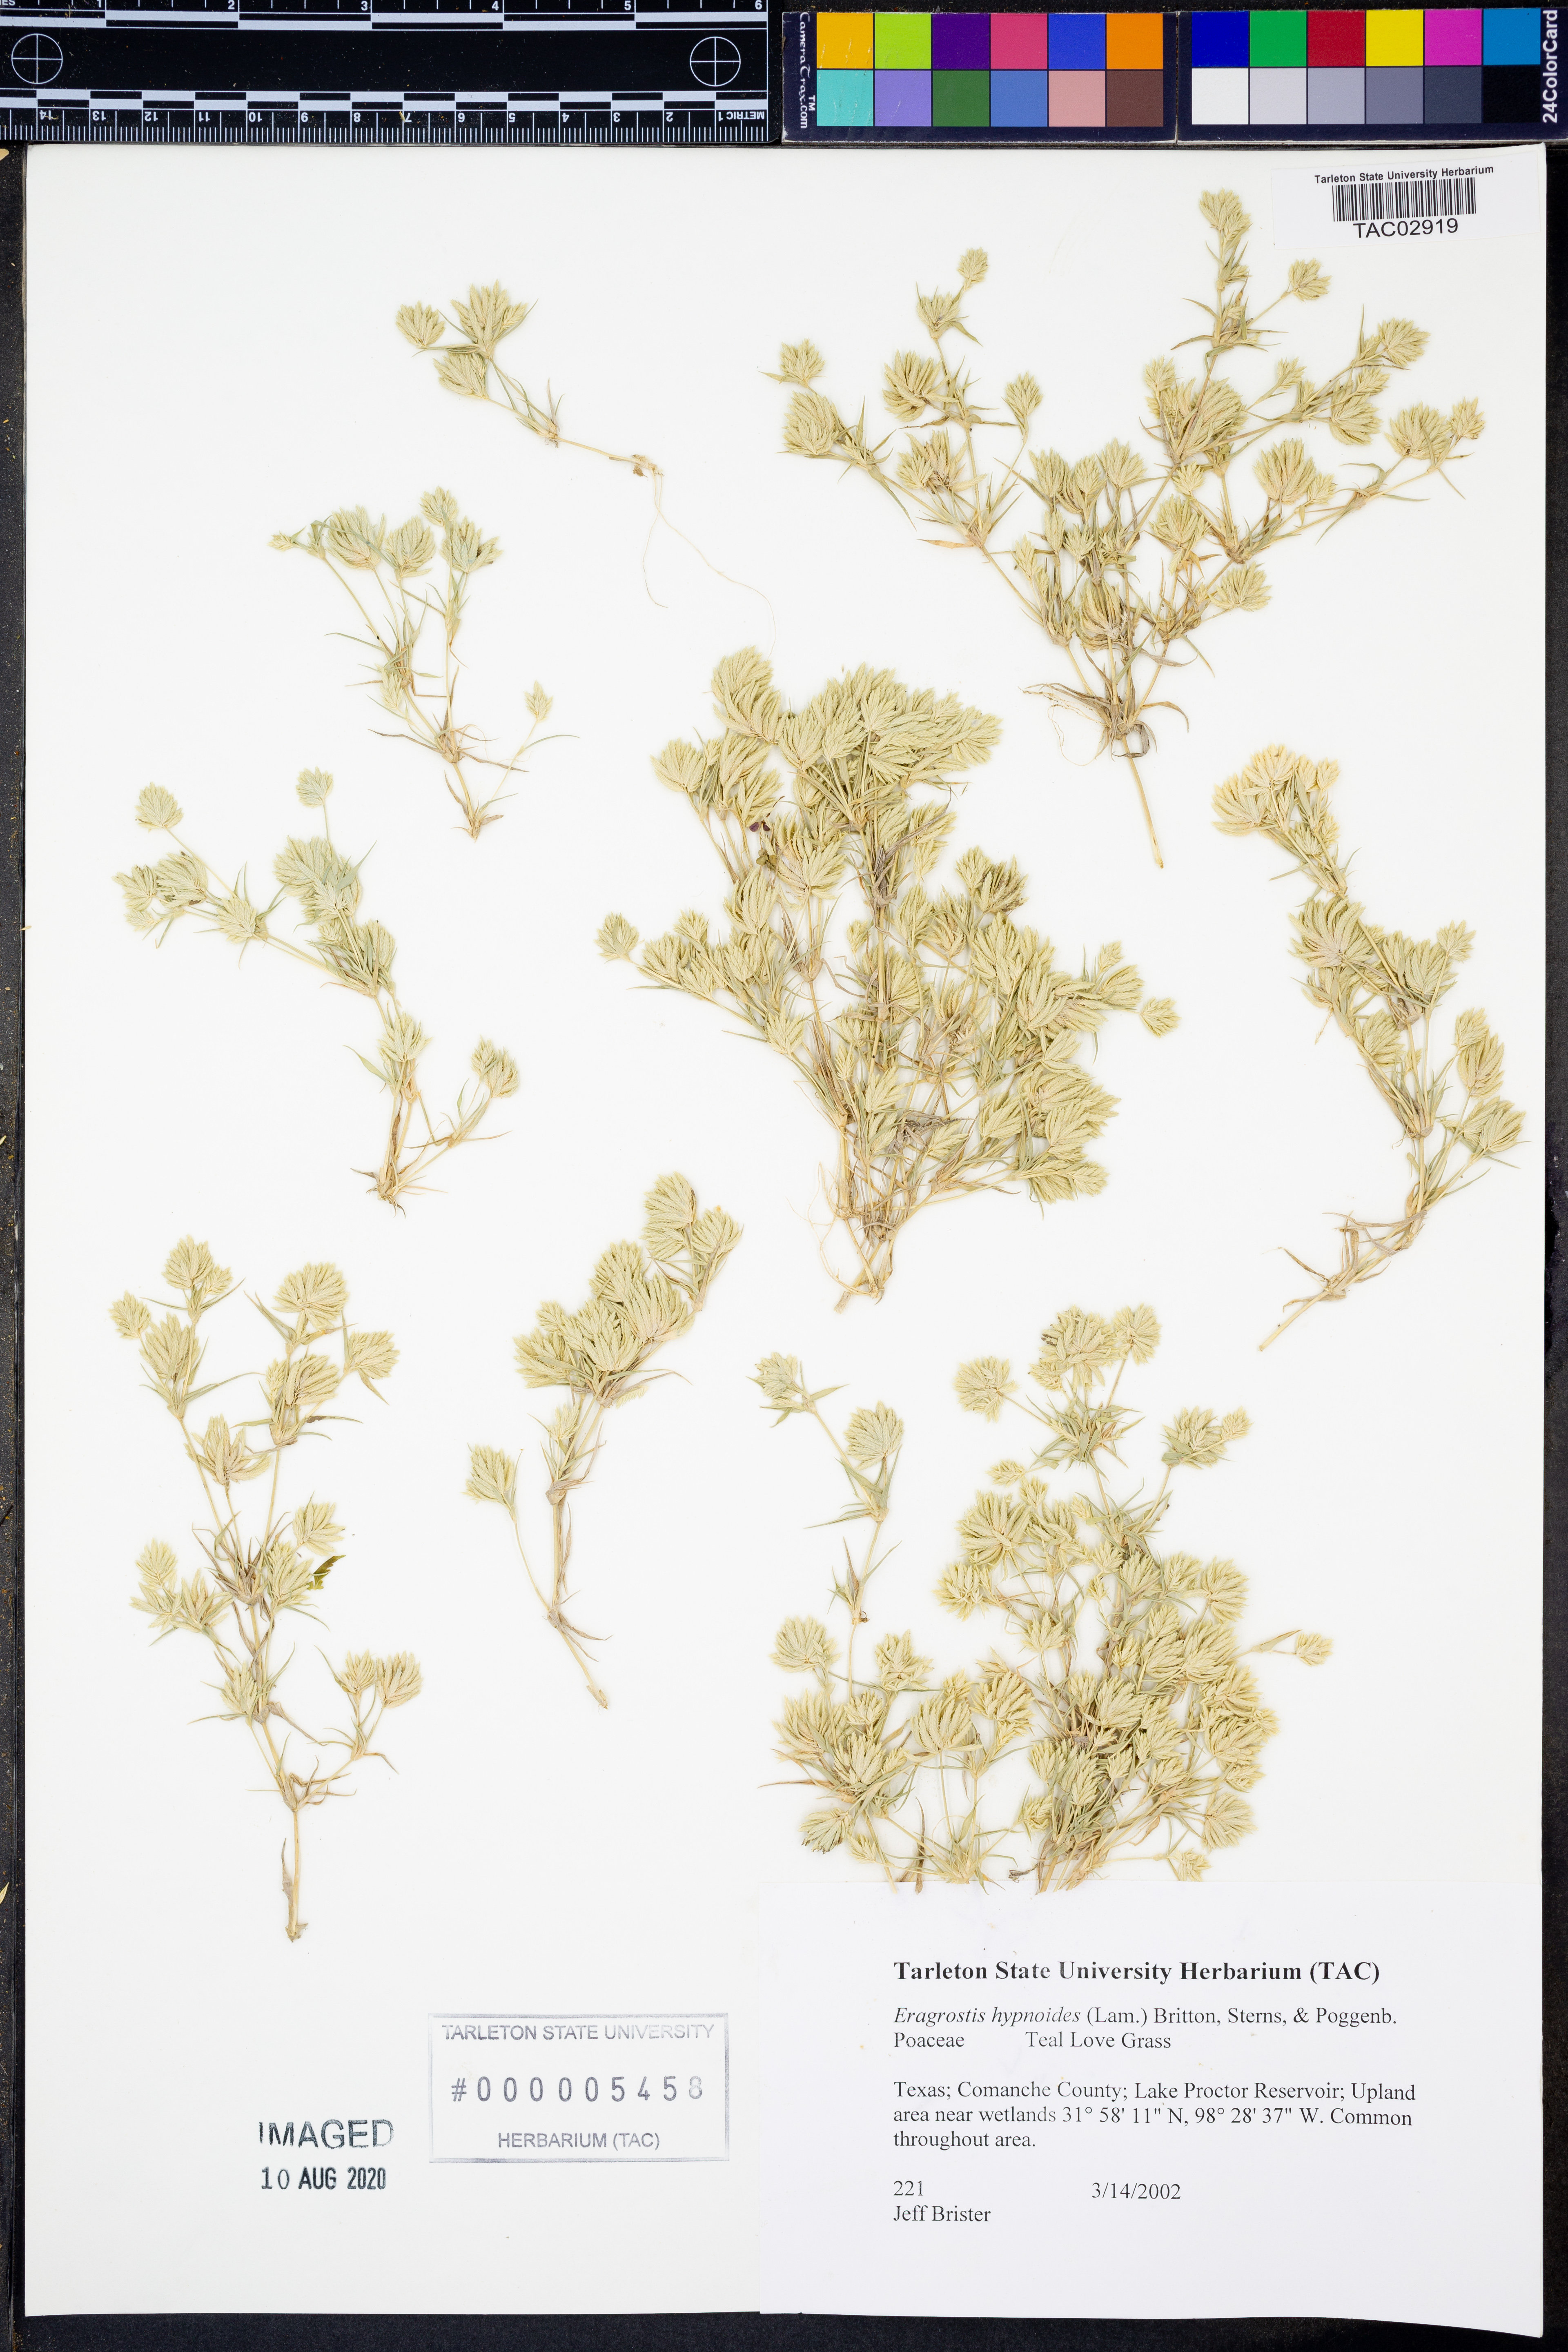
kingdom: Plantae
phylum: Tracheophyta
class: Liliopsida
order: Poales
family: Poaceae
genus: Eragrostis
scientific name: Eragrostis hypnoides
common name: Creeping love grass
